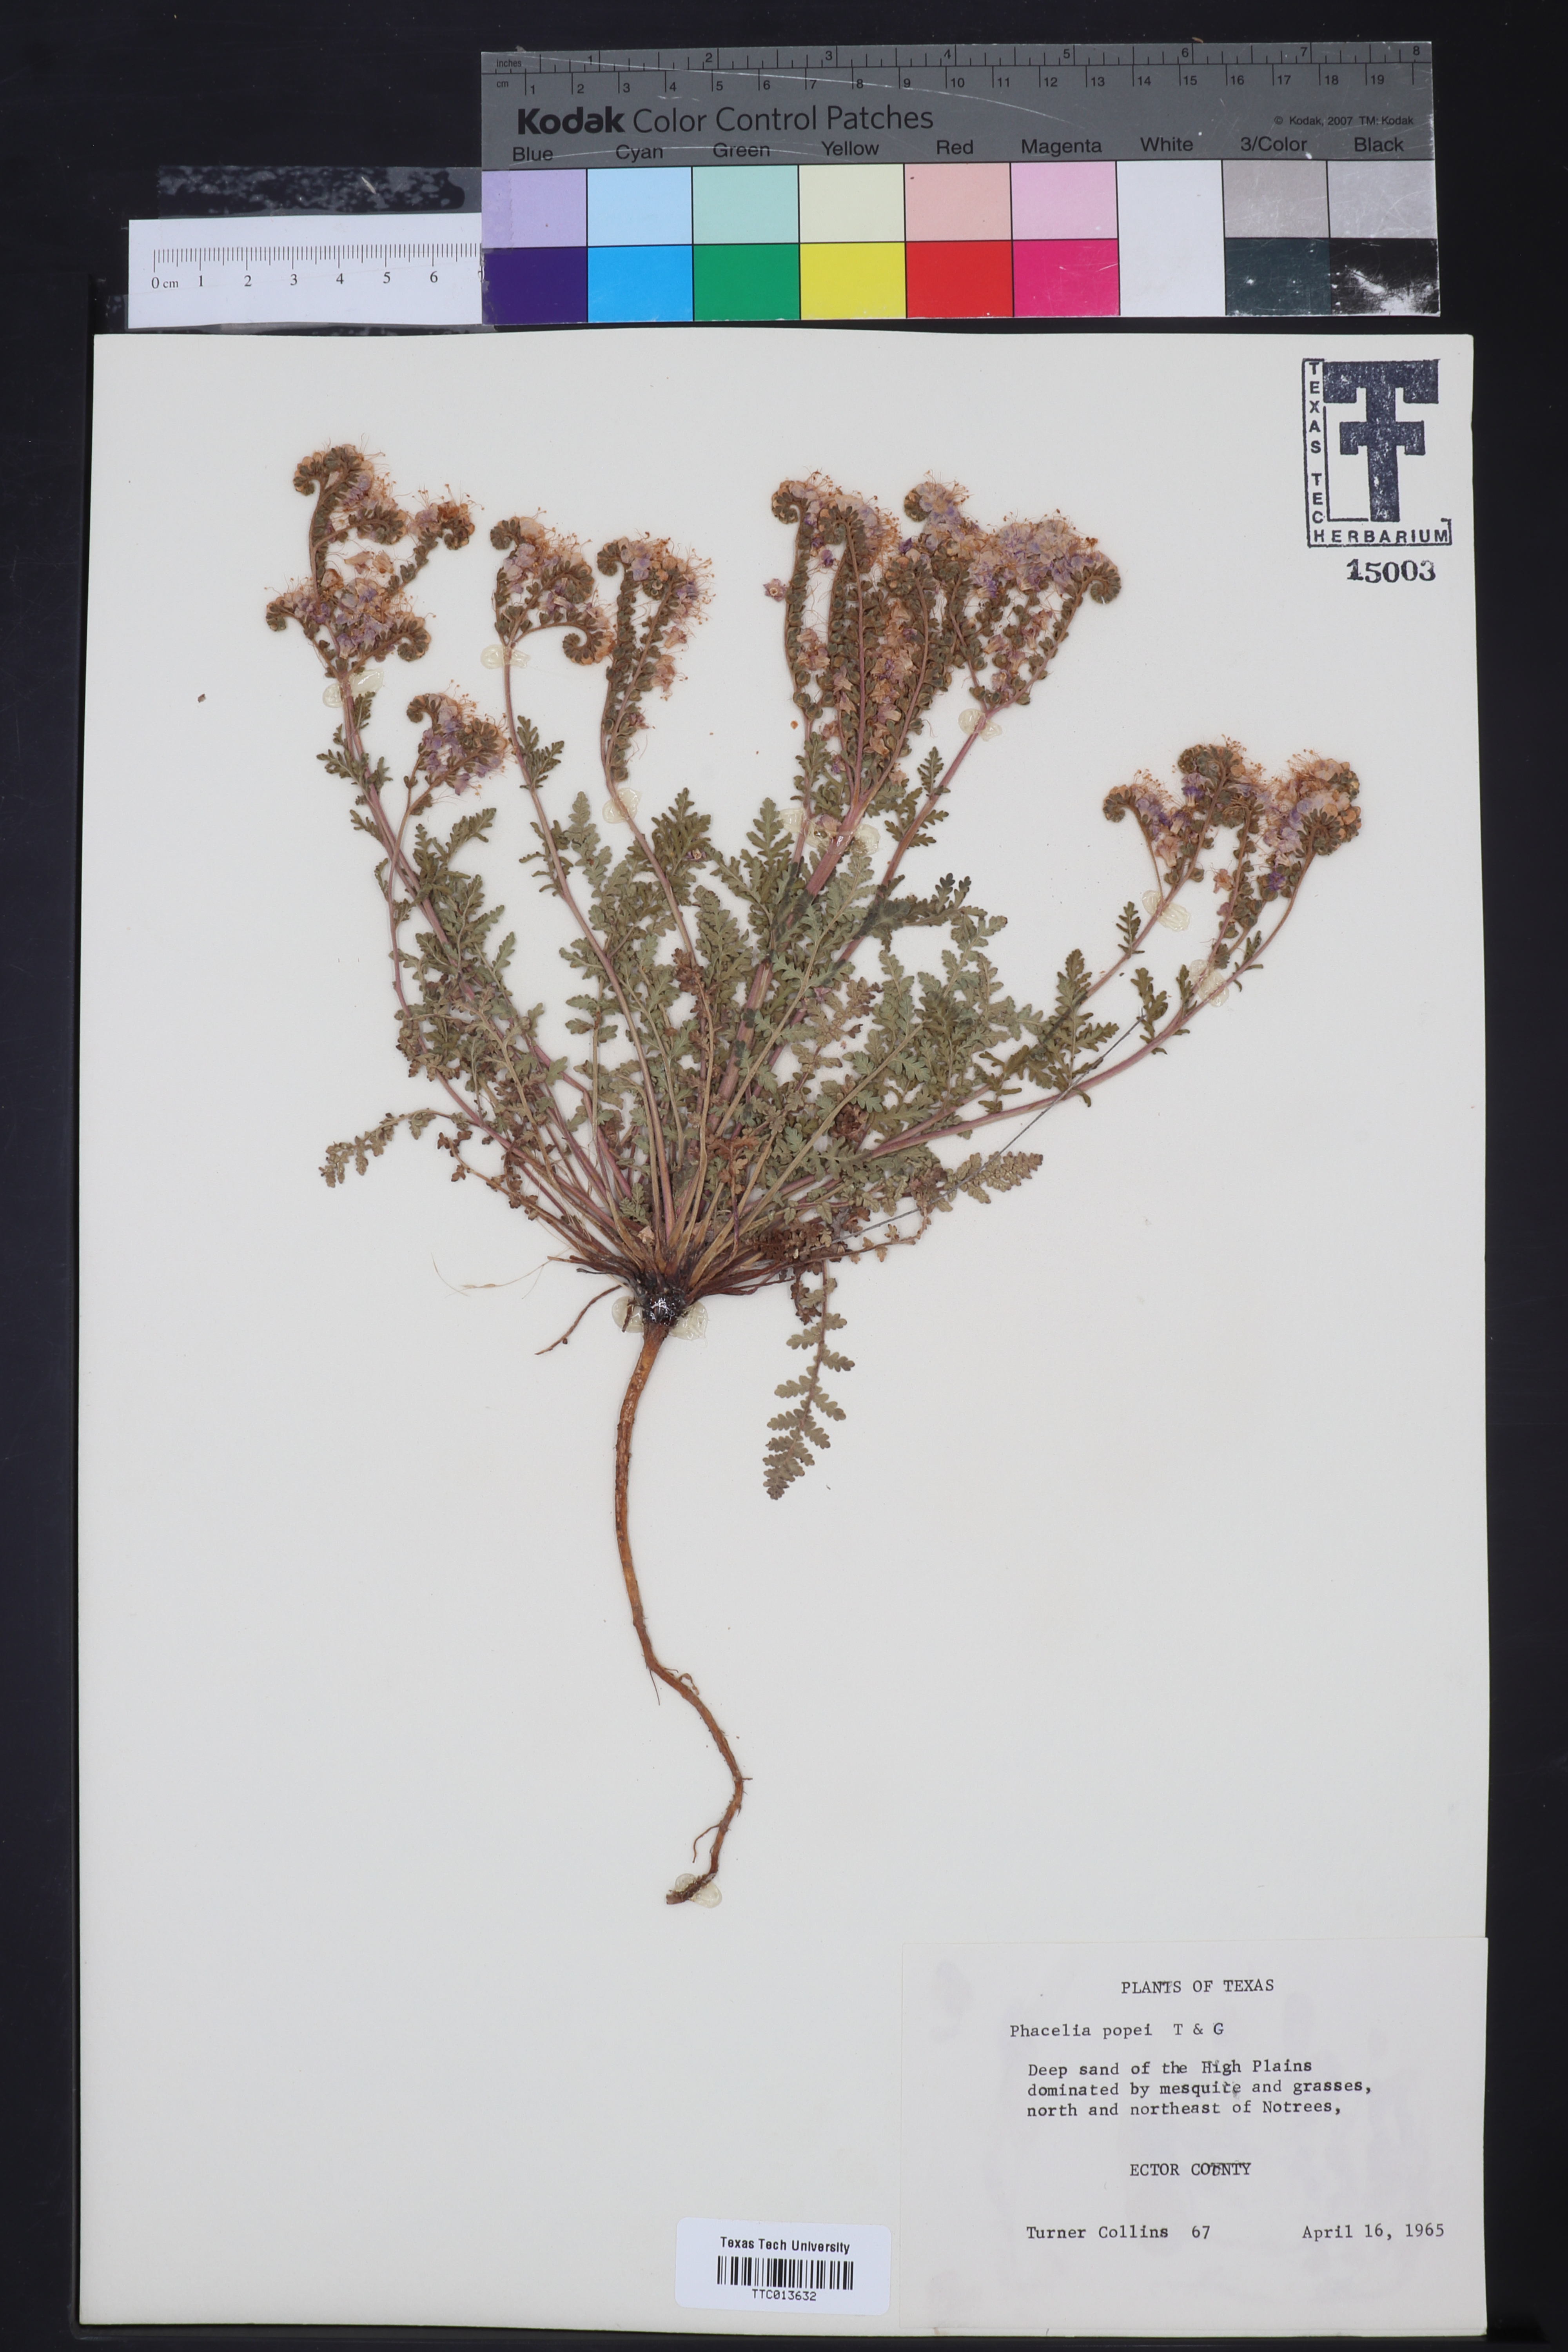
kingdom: Plantae
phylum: Tracheophyta
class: Magnoliopsida
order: Boraginales
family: Hydrophyllaceae
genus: Phacelia
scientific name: Phacelia popei
